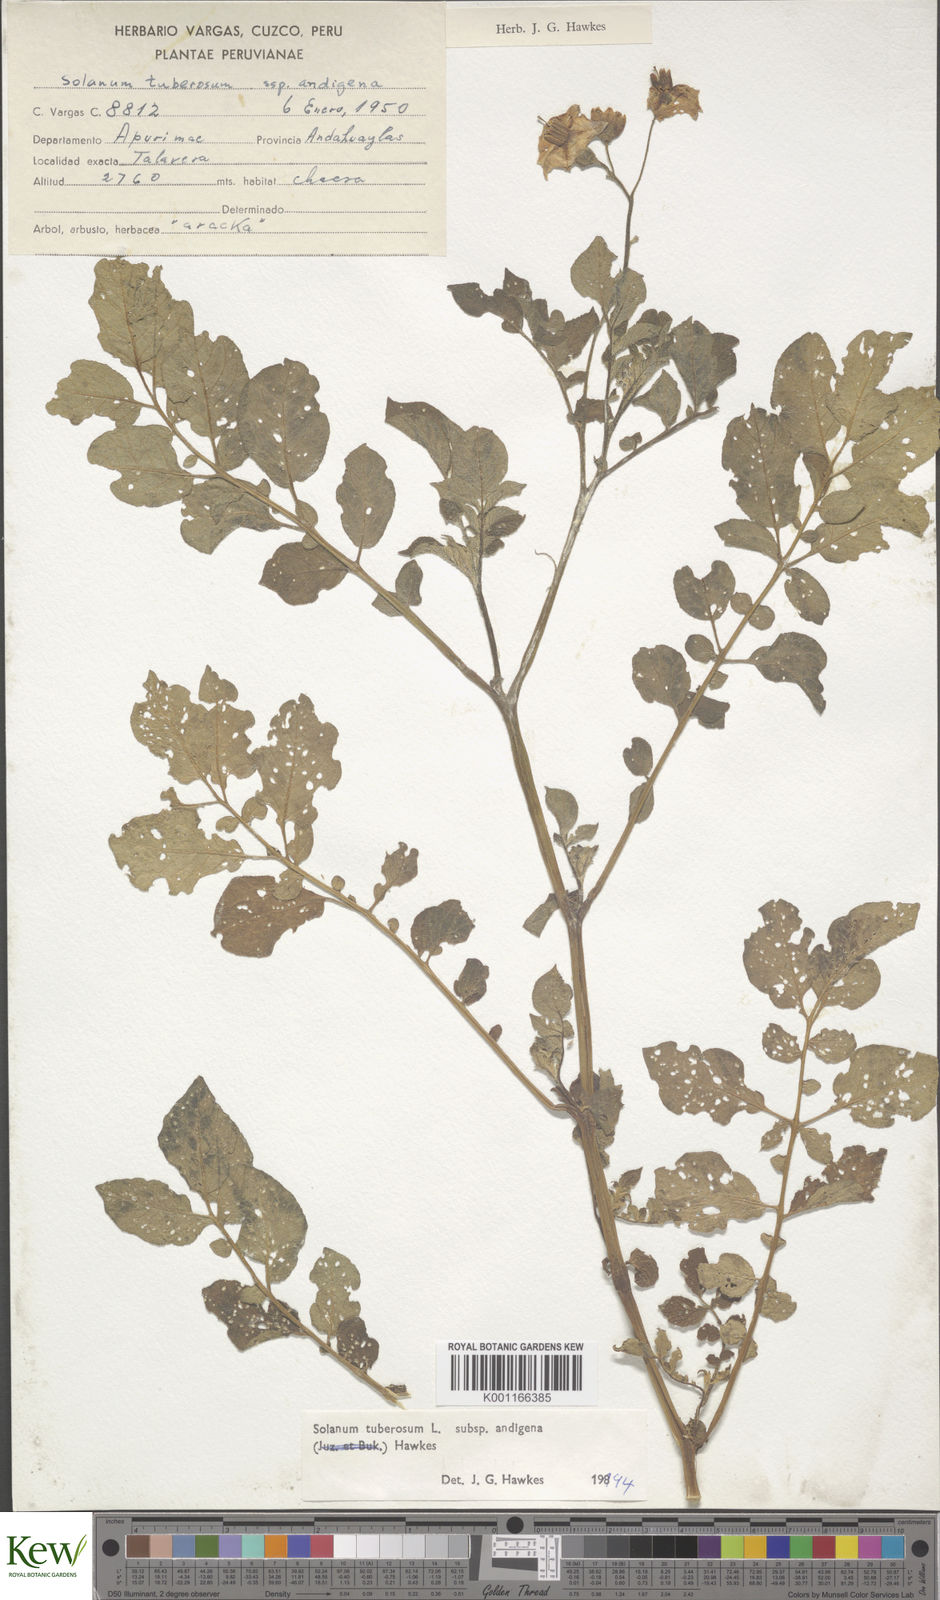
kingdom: Plantae
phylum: Tracheophyta
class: Magnoliopsida
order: Solanales
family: Solanaceae
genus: Solanum
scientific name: Solanum tuberosum
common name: Potato
